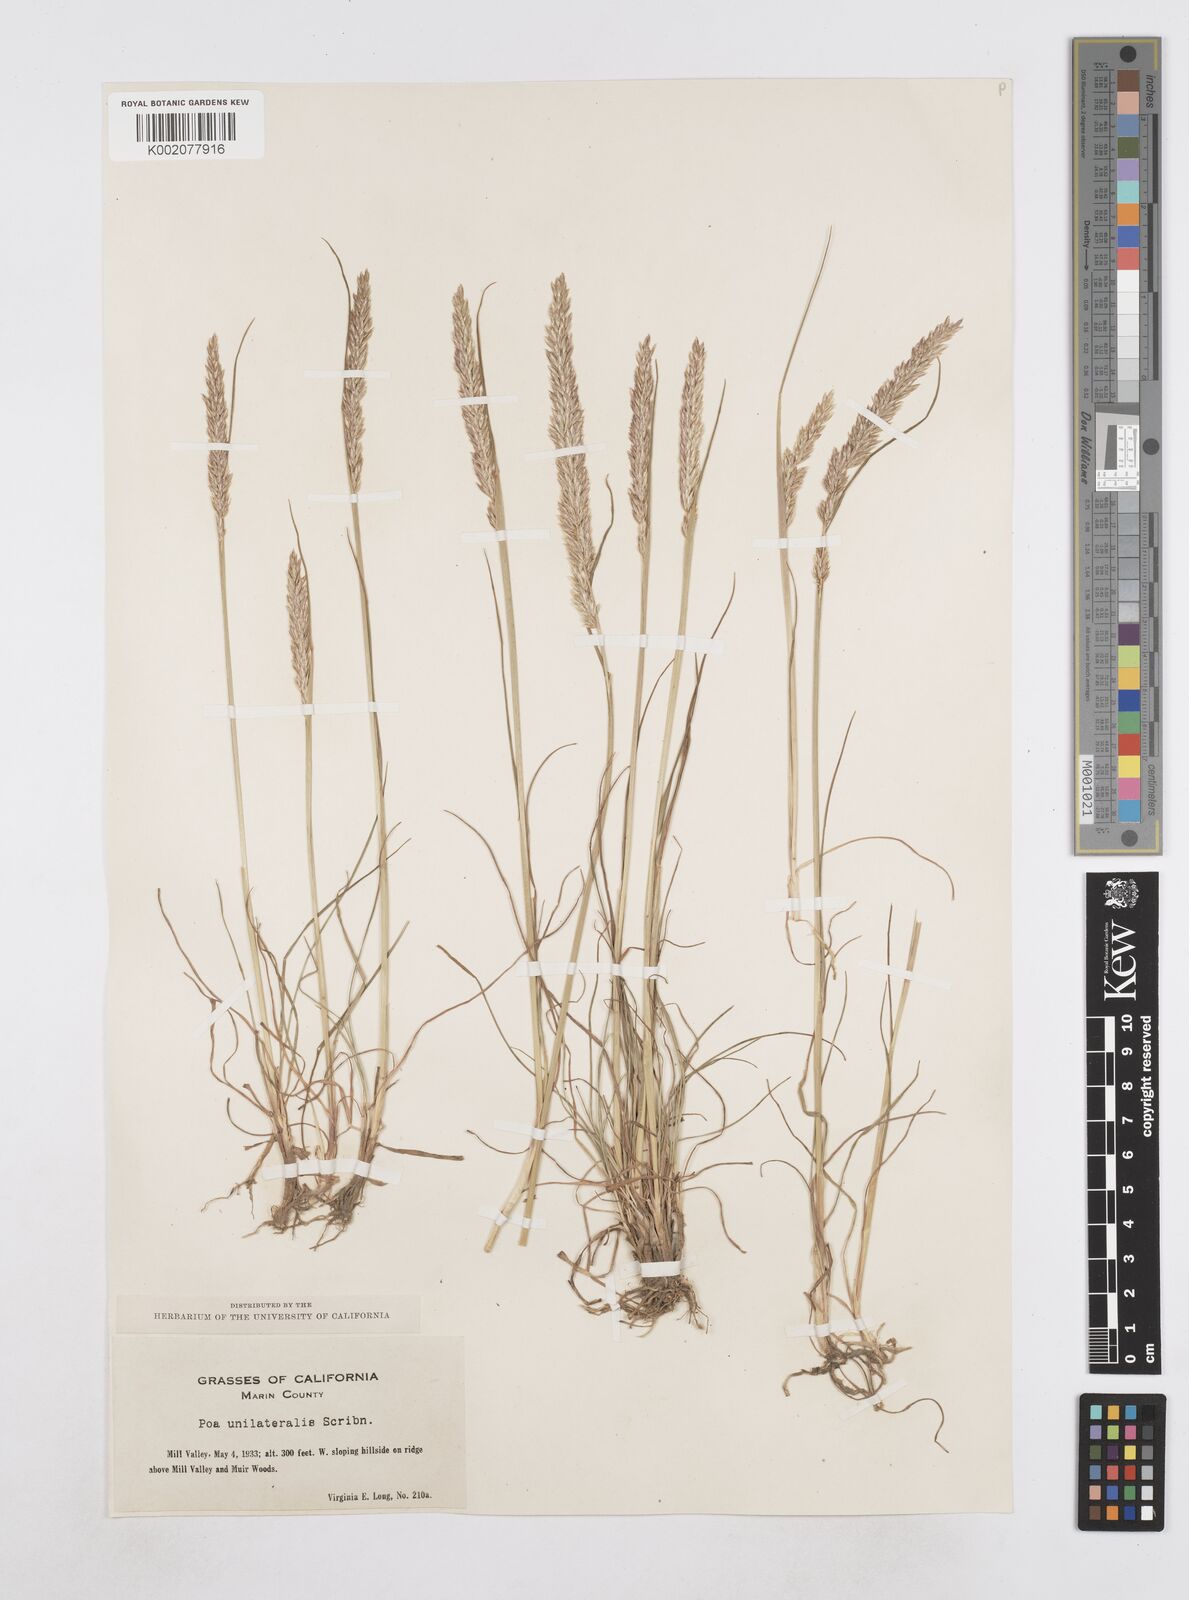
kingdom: Plantae
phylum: Tracheophyta
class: Liliopsida
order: Poales
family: Poaceae
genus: Poa
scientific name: Poa unilateralis
